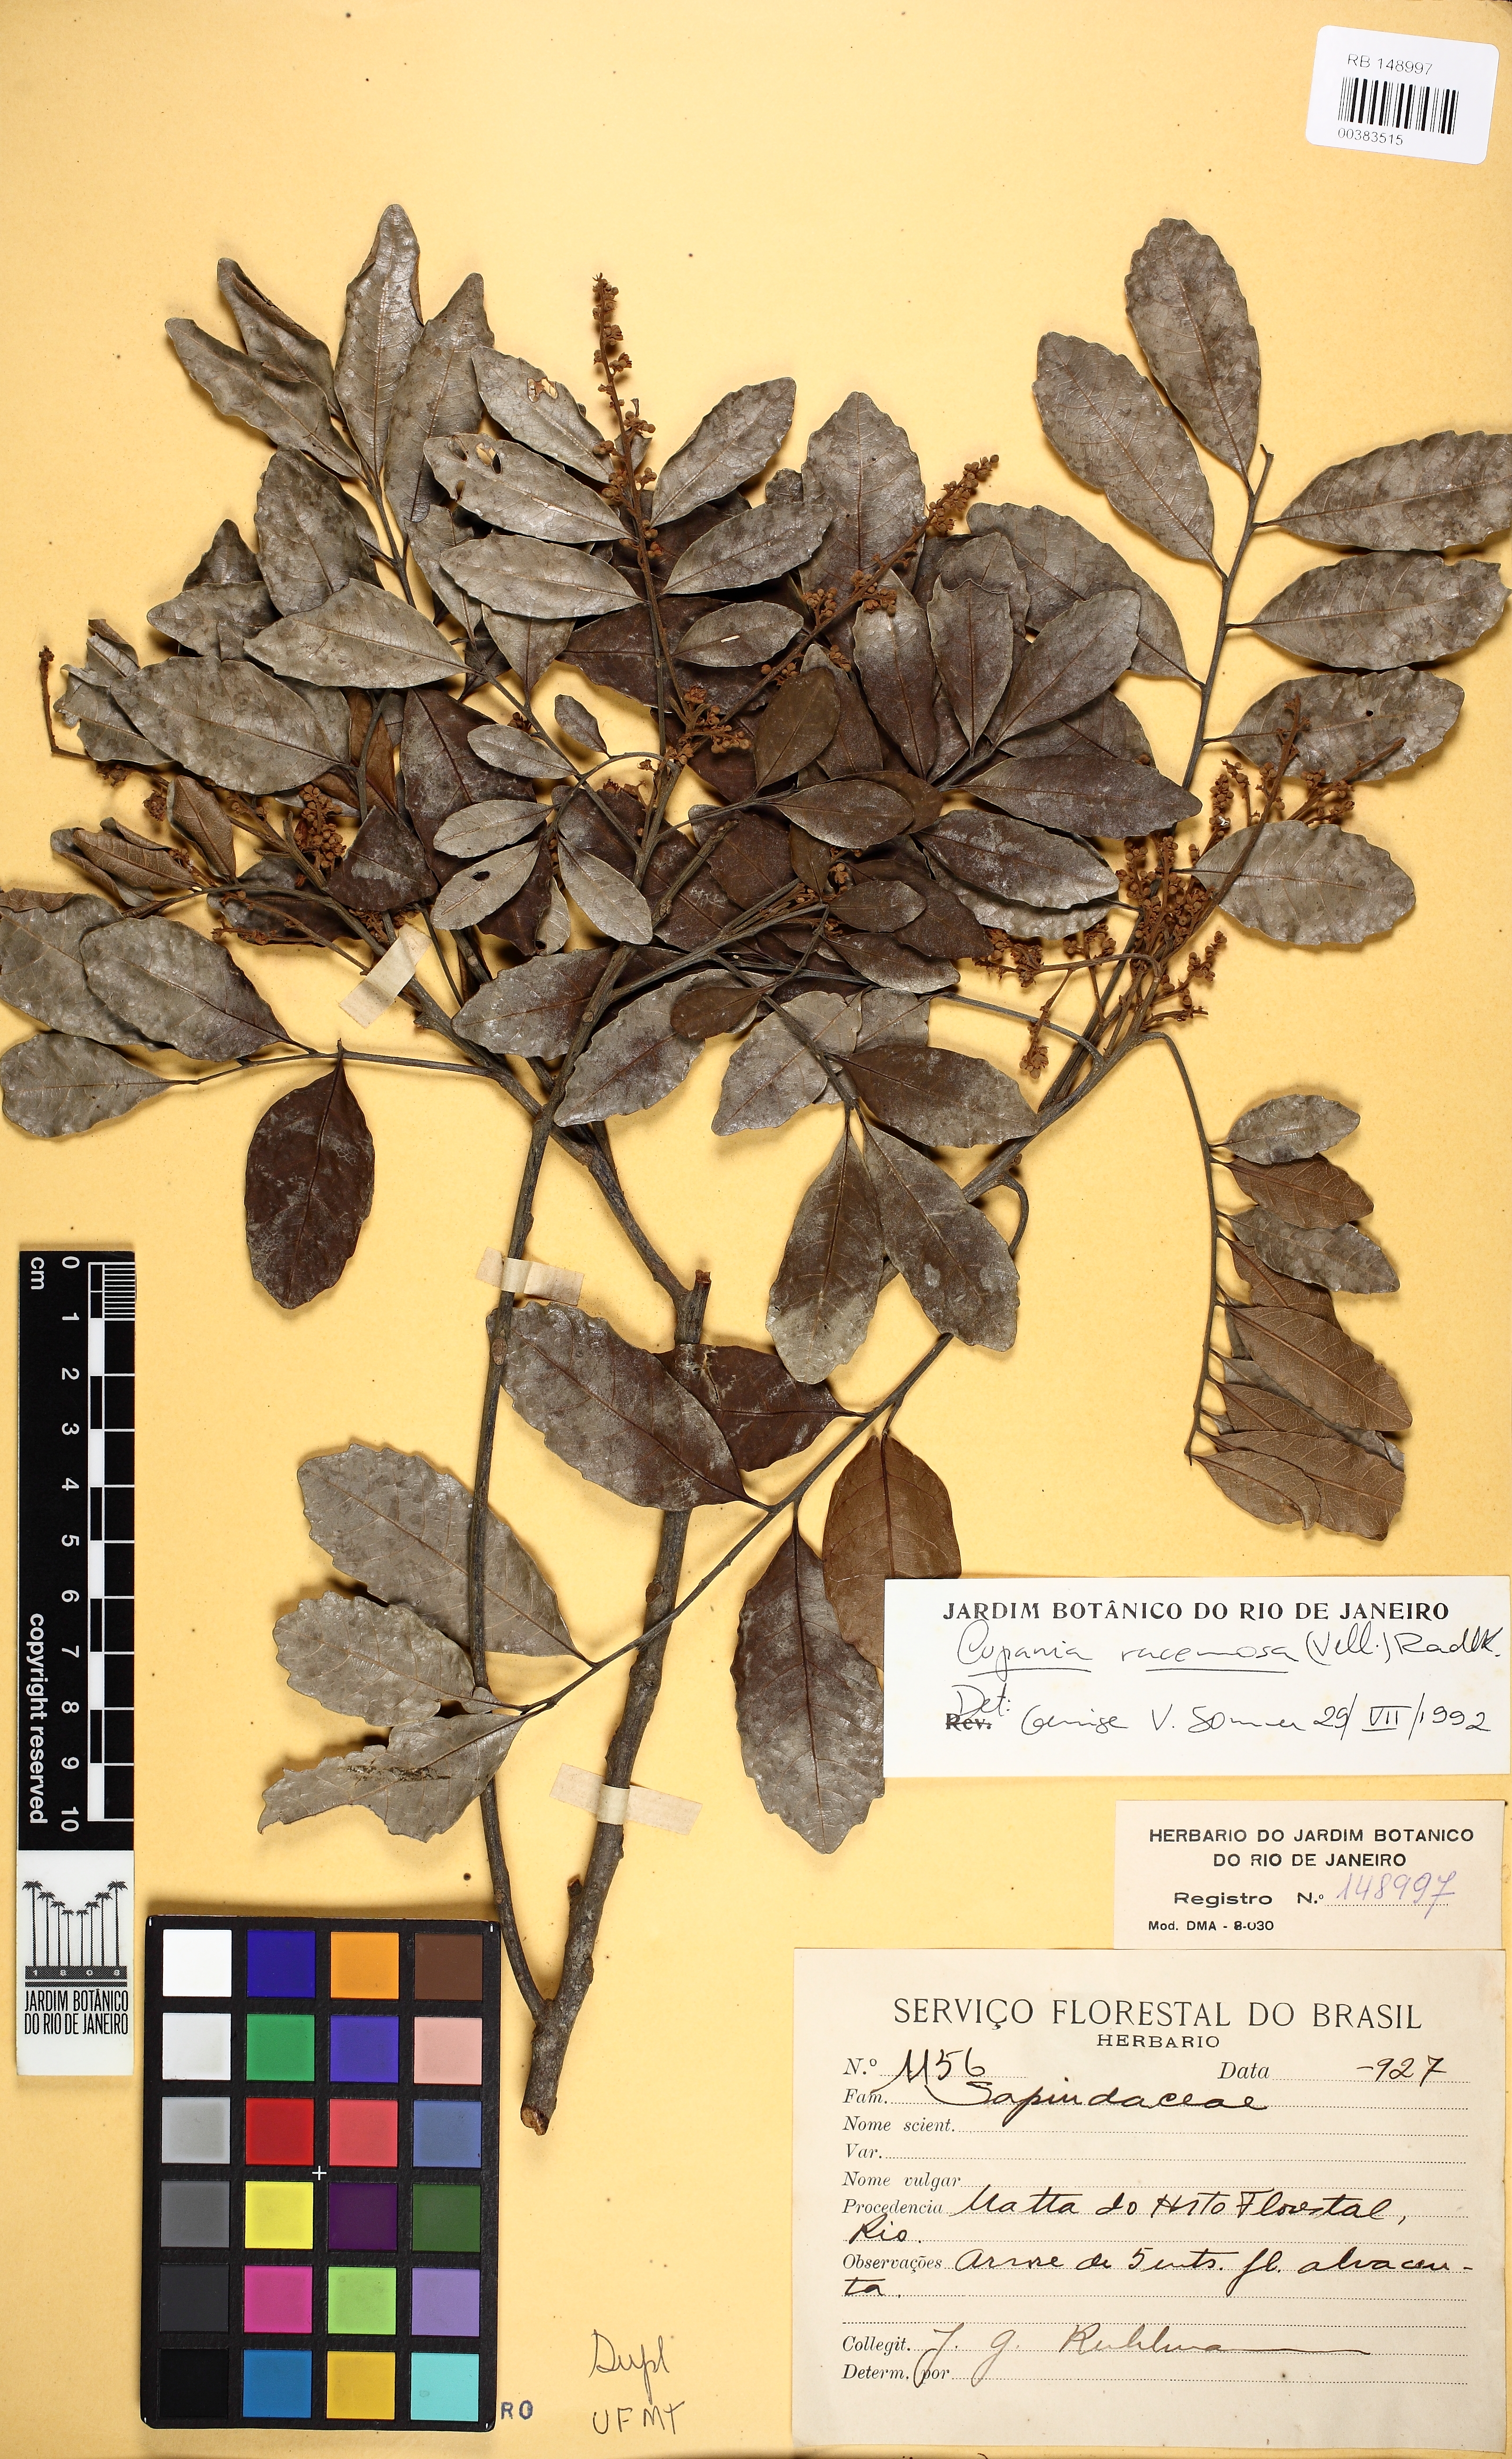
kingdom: Plantae
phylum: Tracheophyta
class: Magnoliopsida
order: Sapindales
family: Sapindaceae
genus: Cupania
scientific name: Cupania racemosa
